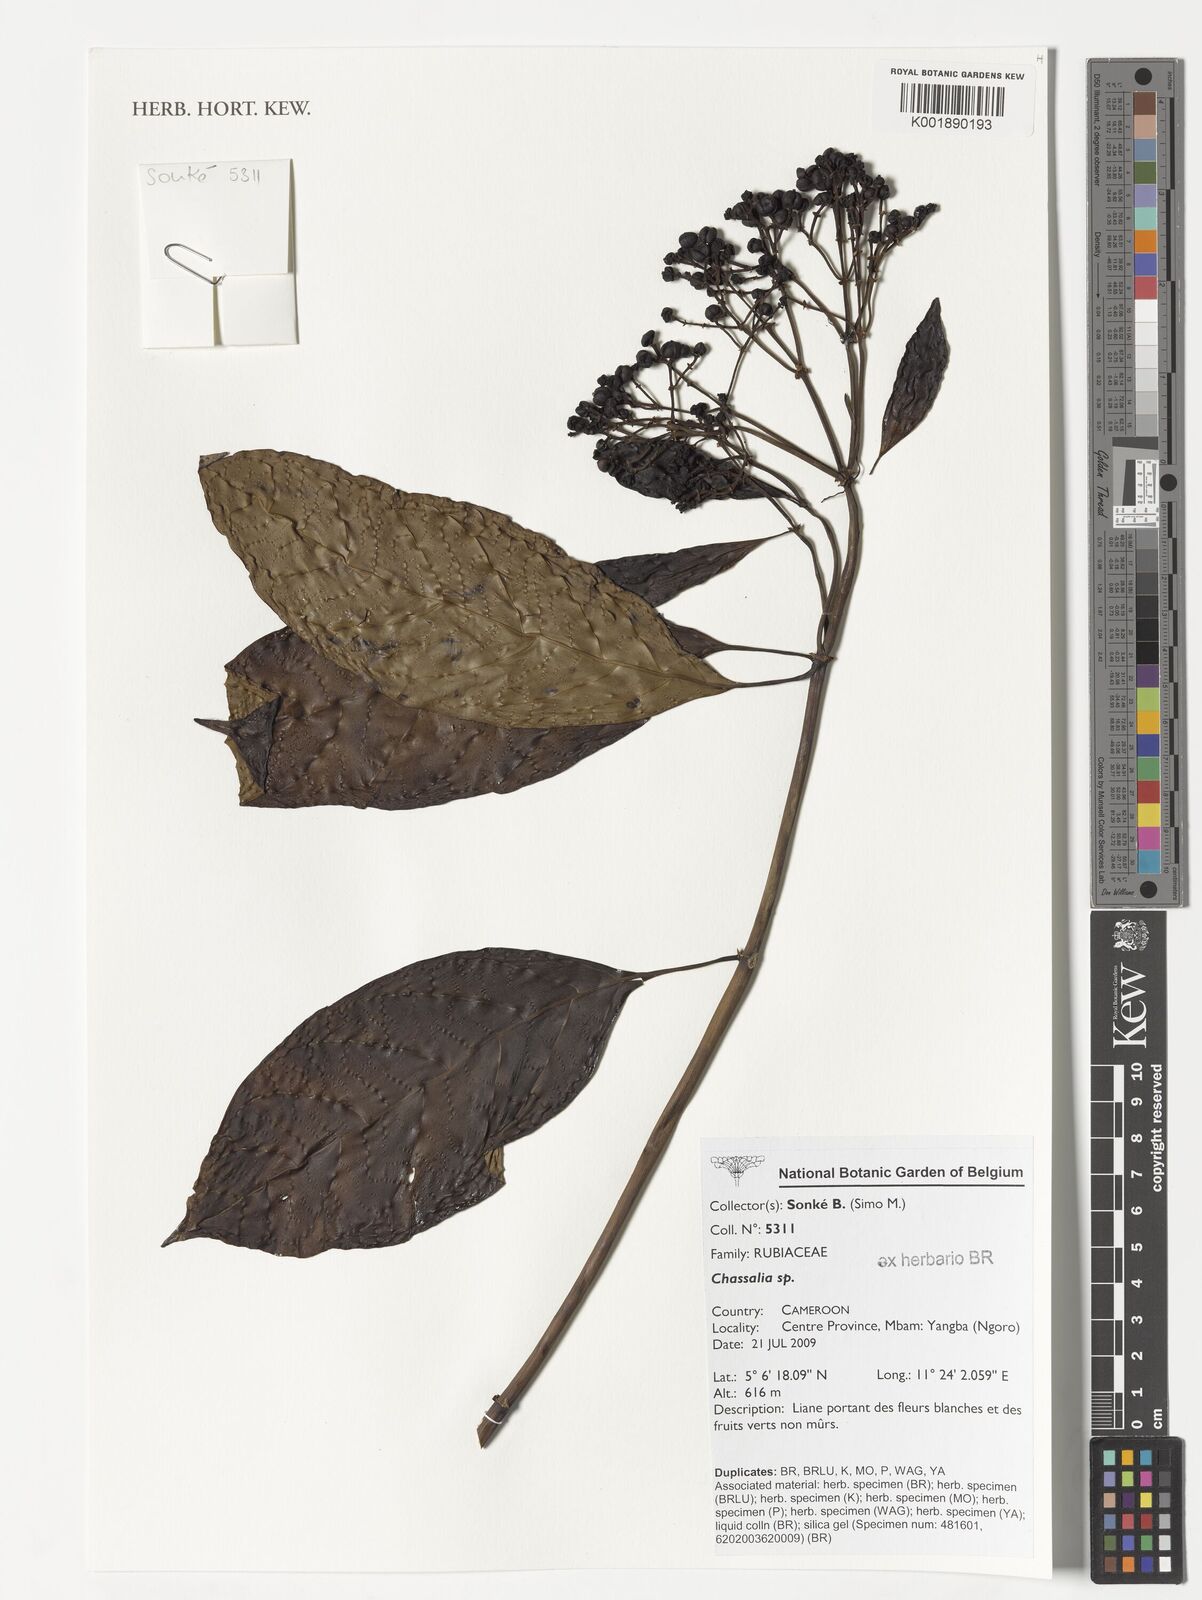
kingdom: Plantae
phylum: Tracheophyta
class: Magnoliopsida
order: Gentianales
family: Rubiaceae
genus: Chassalia
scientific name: Chassalia
